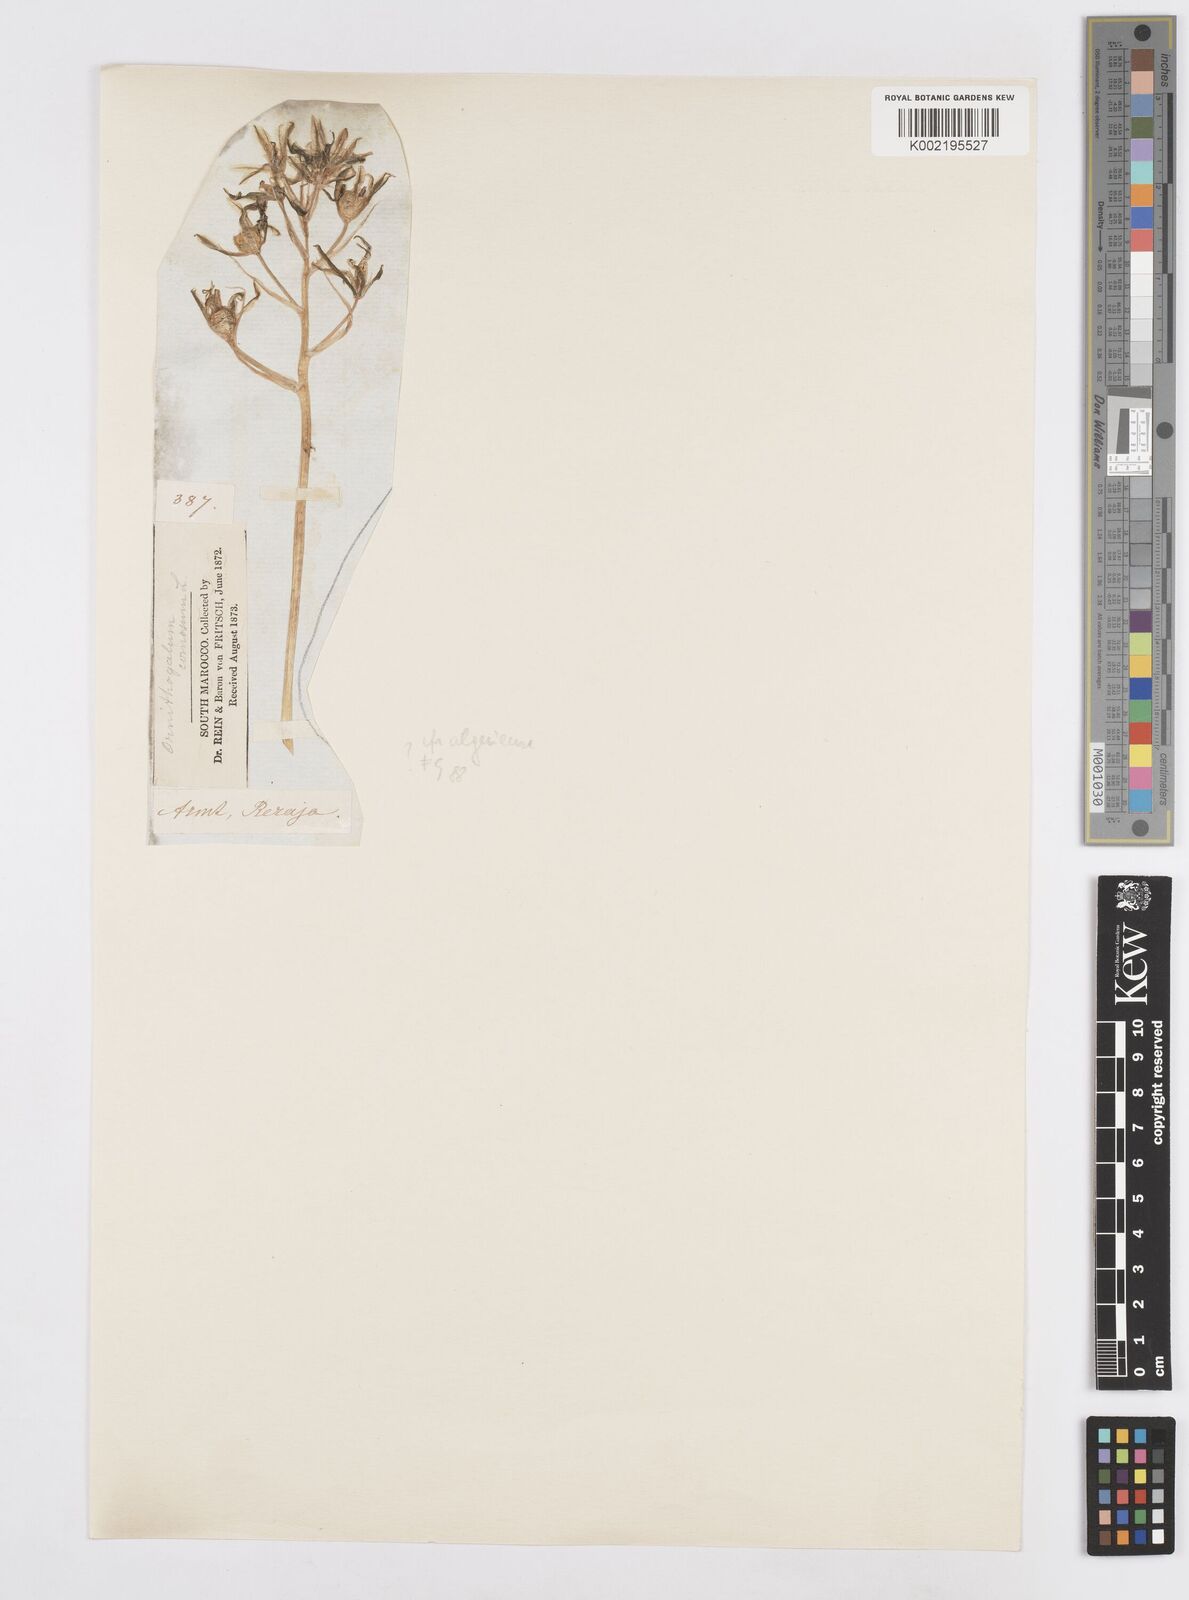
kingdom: Plantae
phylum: Tracheophyta
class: Liliopsida
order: Asparagales
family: Asparagaceae
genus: Ornithogalum
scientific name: Ornithogalum baeticum
